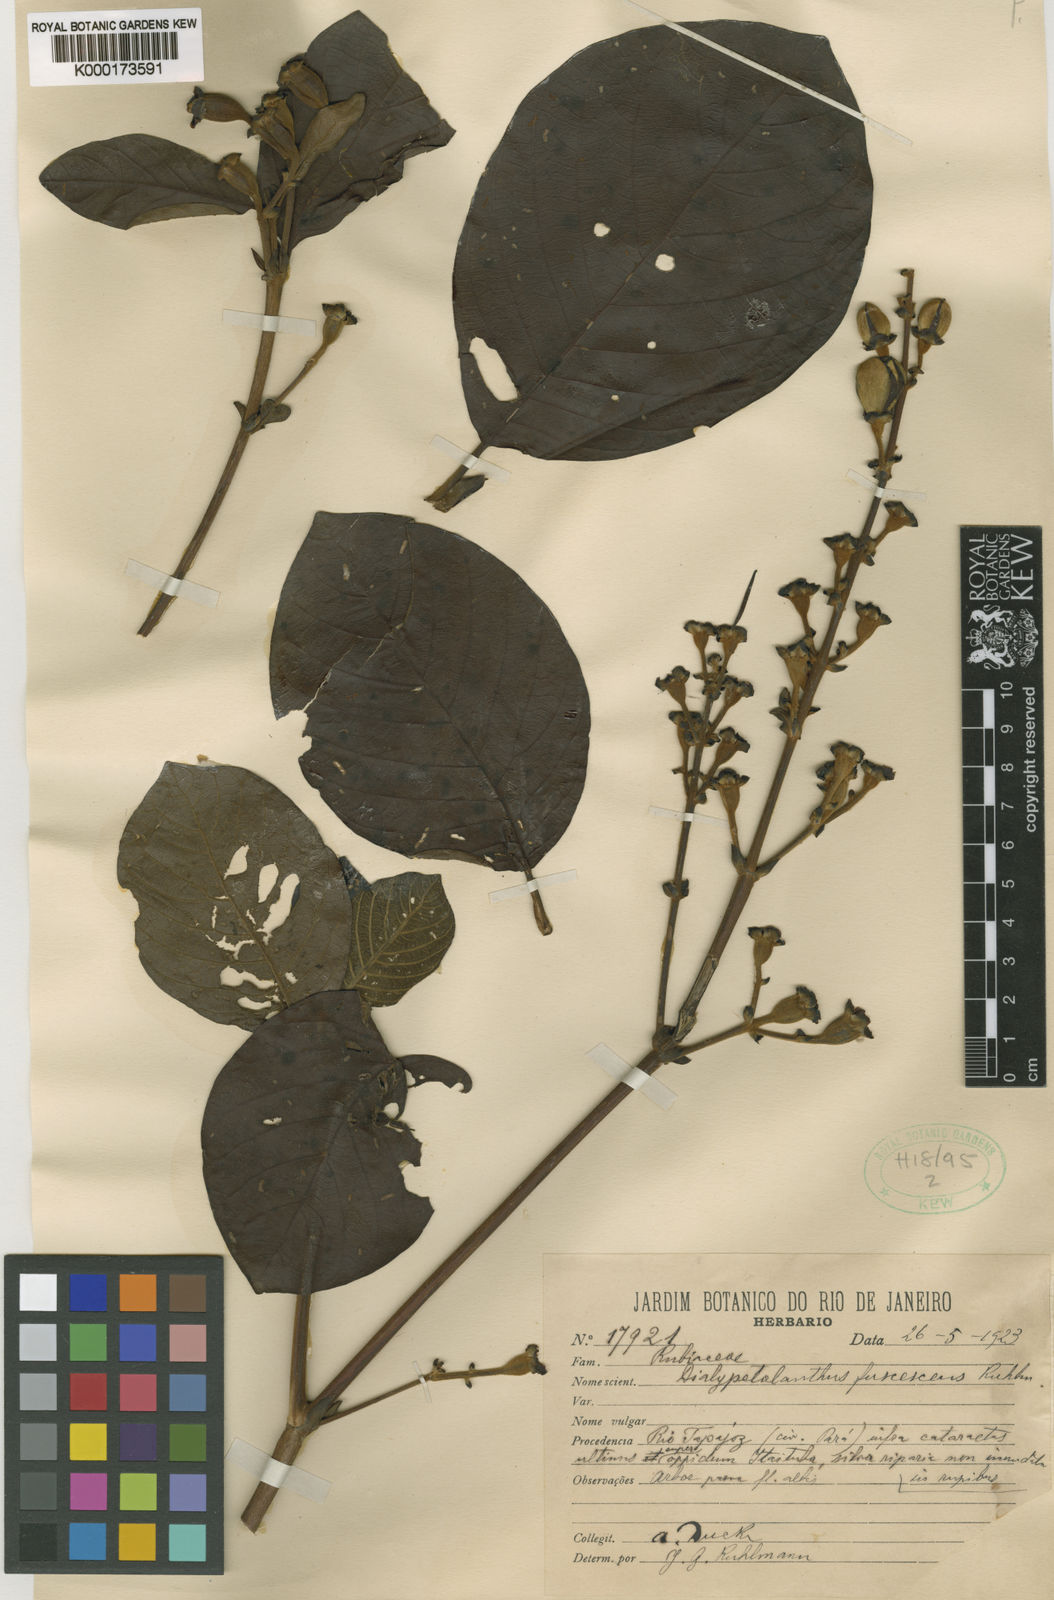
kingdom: Plantae
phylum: Tracheophyta
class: Magnoliopsida
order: Gentianales
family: Rubiaceae
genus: Dialypetalanthus
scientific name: Dialypetalanthus fuscescens
